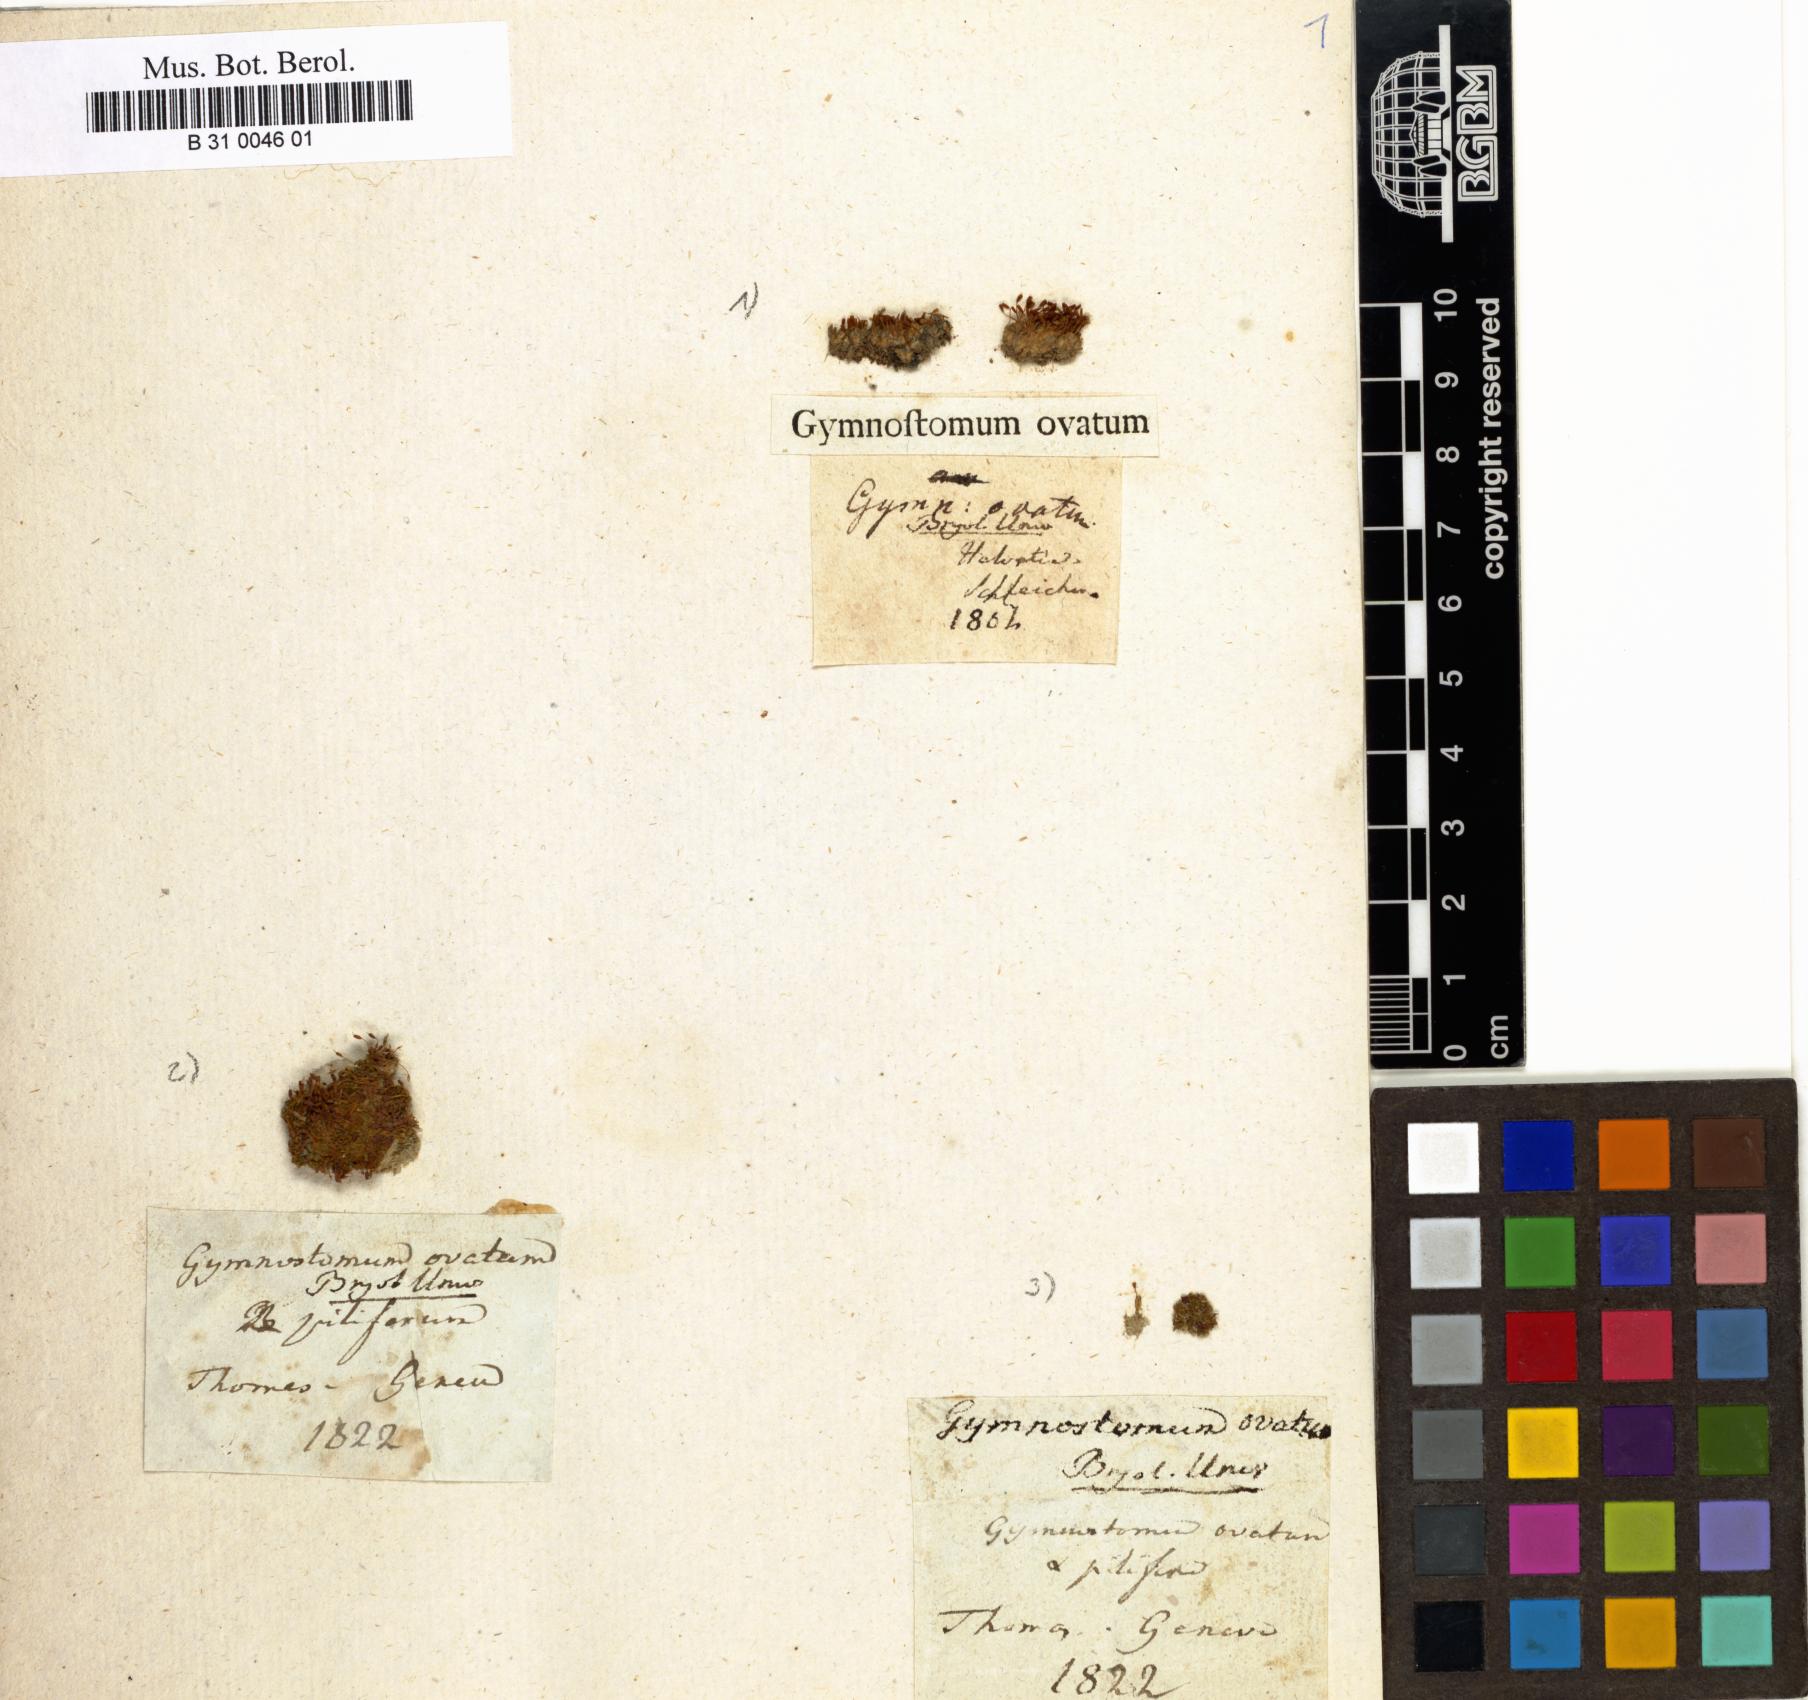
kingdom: Plantae
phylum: Bryophyta
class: Bryopsida
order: Pottiales
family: Pottiaceae
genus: Pterygoneurum
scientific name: Pterygoneurum ovatum
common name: Ovate pterygoneurum
